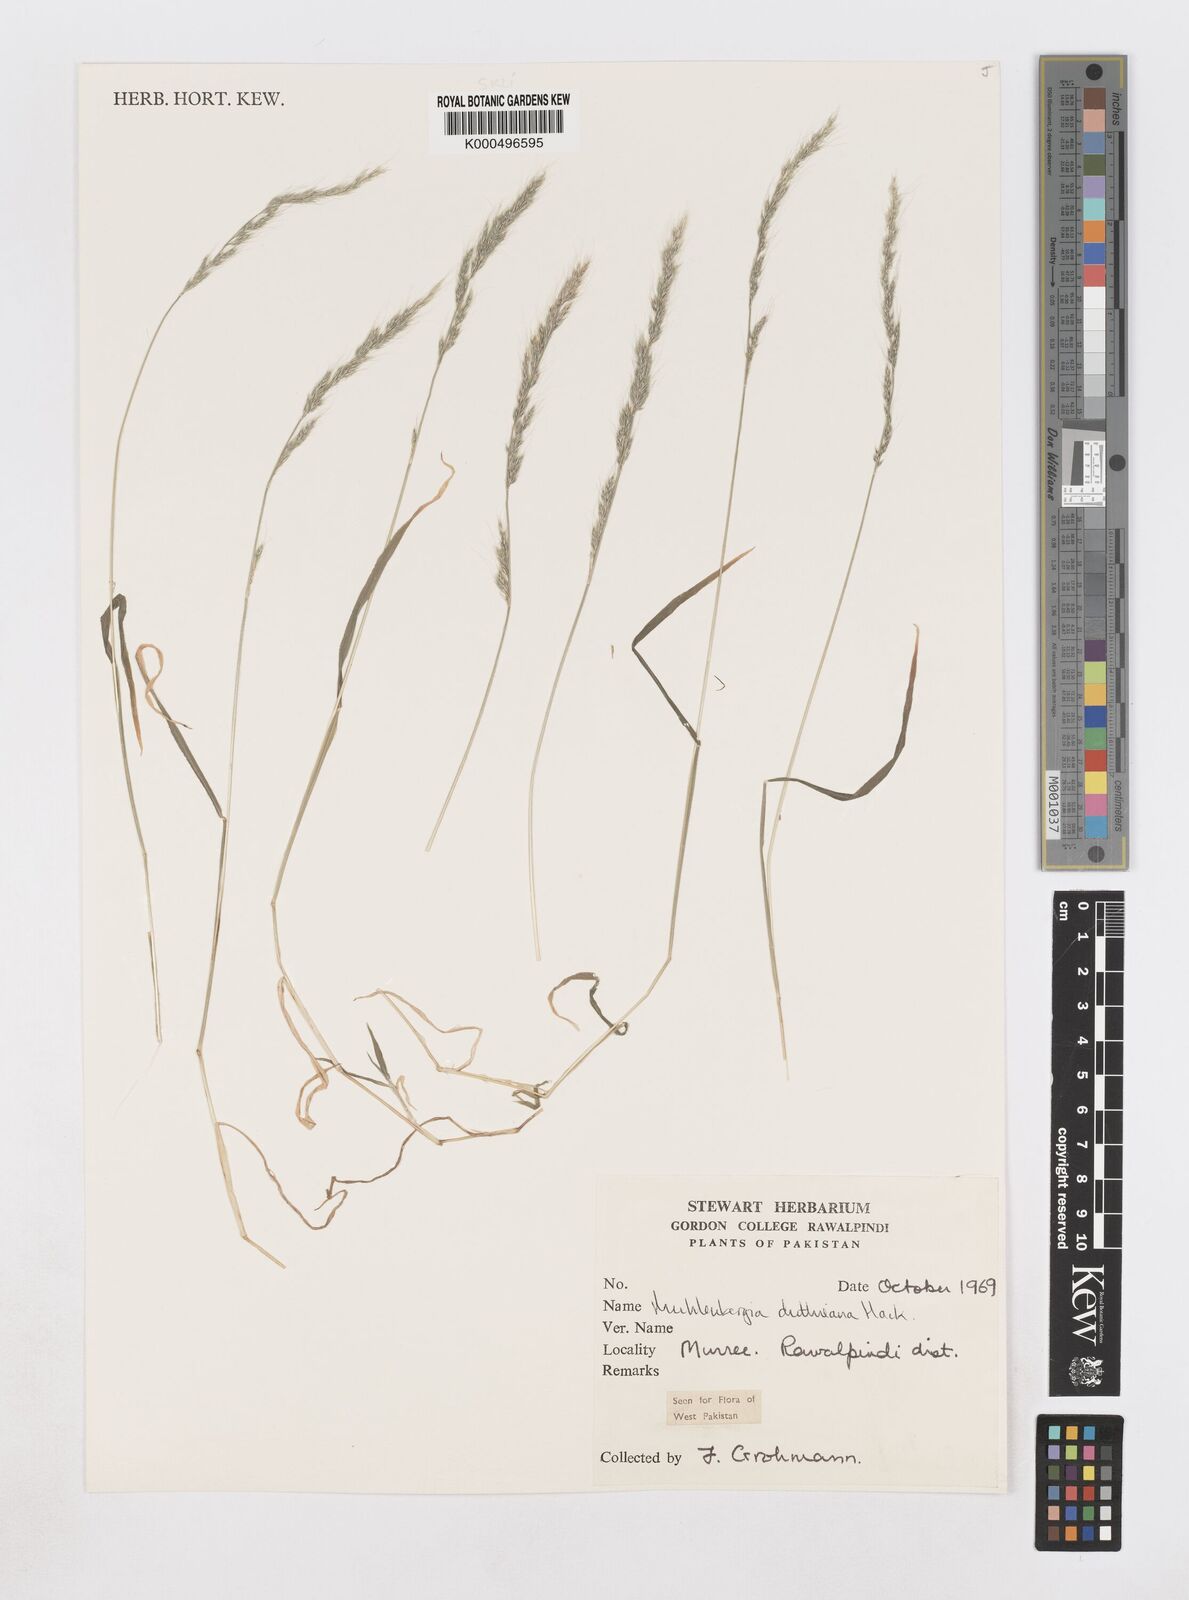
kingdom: Plantae
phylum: Tracheophyta
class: Liliopsida
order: Poales
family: Poaceae
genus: Muhlenbergia
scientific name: Muhlenbergia duthieana
